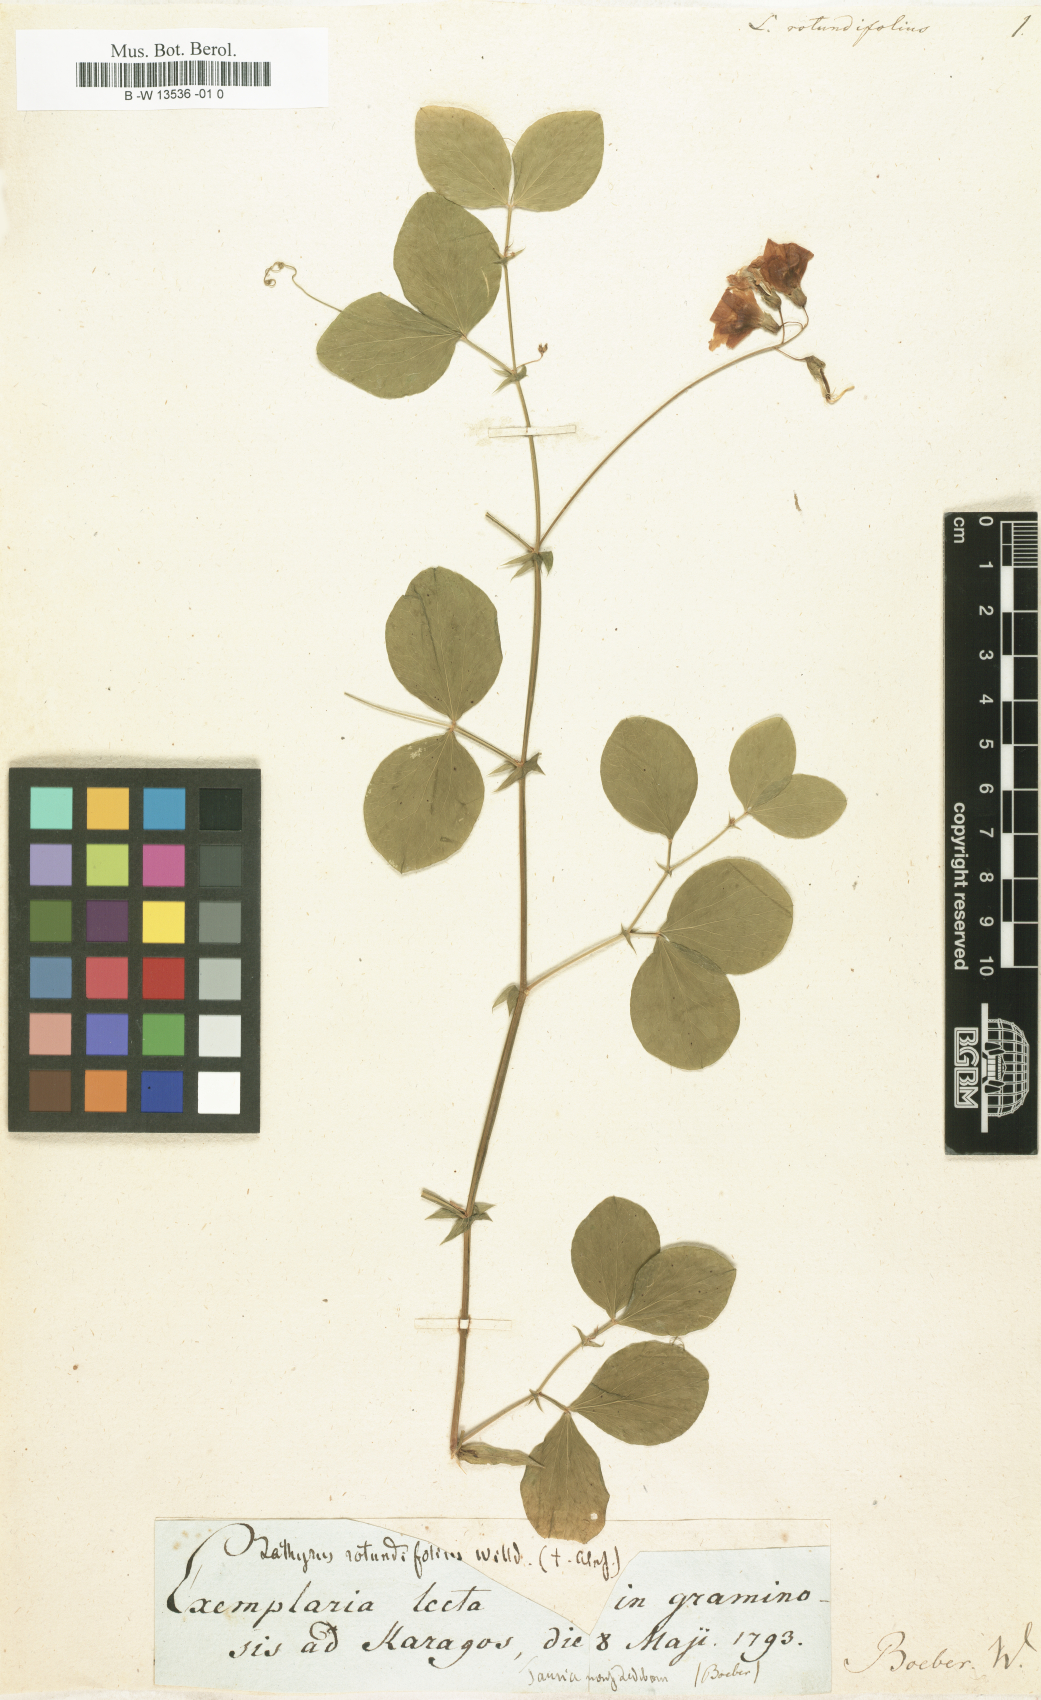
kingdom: Plantae
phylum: Tracheophyta
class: Magnoliopsida
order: Fabales
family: Fabaceae
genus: Lathyrus
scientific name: Lathyrus rotundifolius
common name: Round-leaf vetchling
